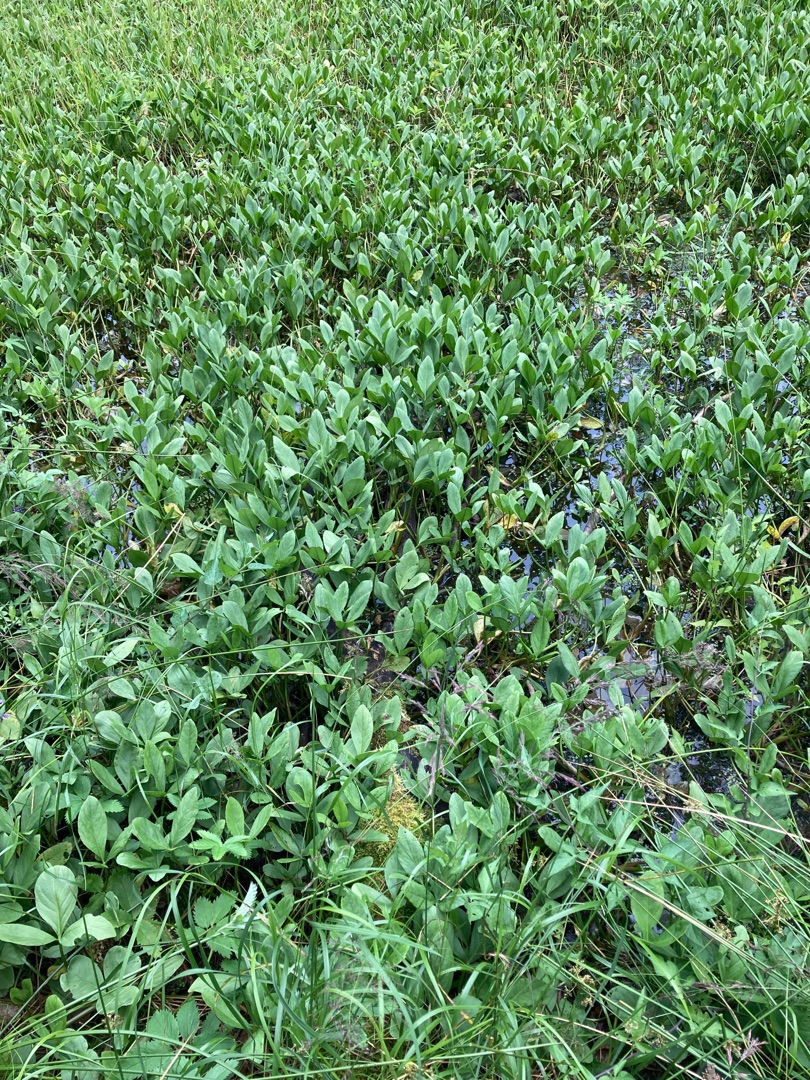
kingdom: Plantae
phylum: Tracheophyta
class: Magnoliopsida
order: Asterales
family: Menyanthaceae
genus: Menyanthes
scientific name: Menyanthes trifoliata
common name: Bukkeblad
